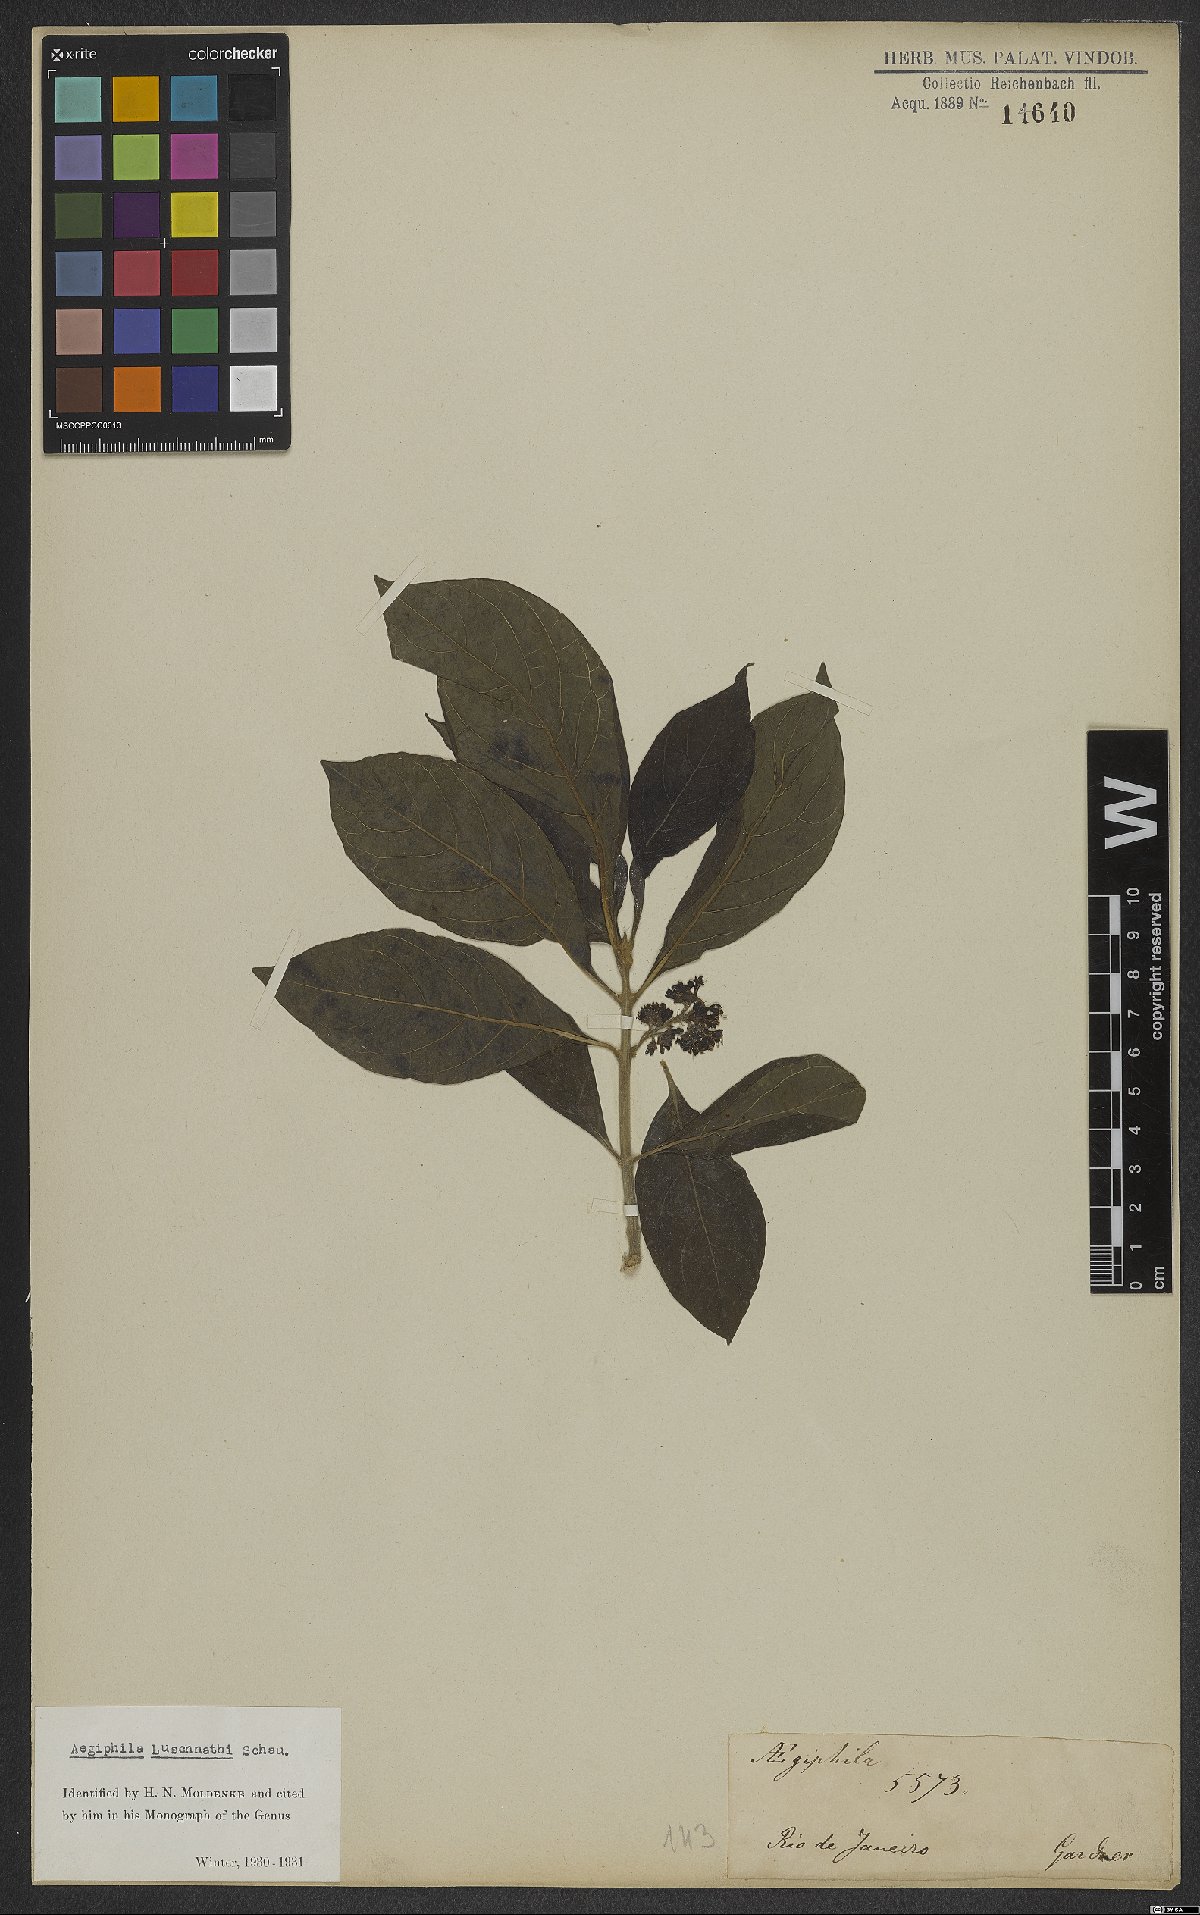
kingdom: Plantae
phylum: Tracheophyta
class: Magnoliopsida
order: Lamiales
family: Lamiaceae
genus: Aegiphila
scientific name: Aegiphila luschnathii
